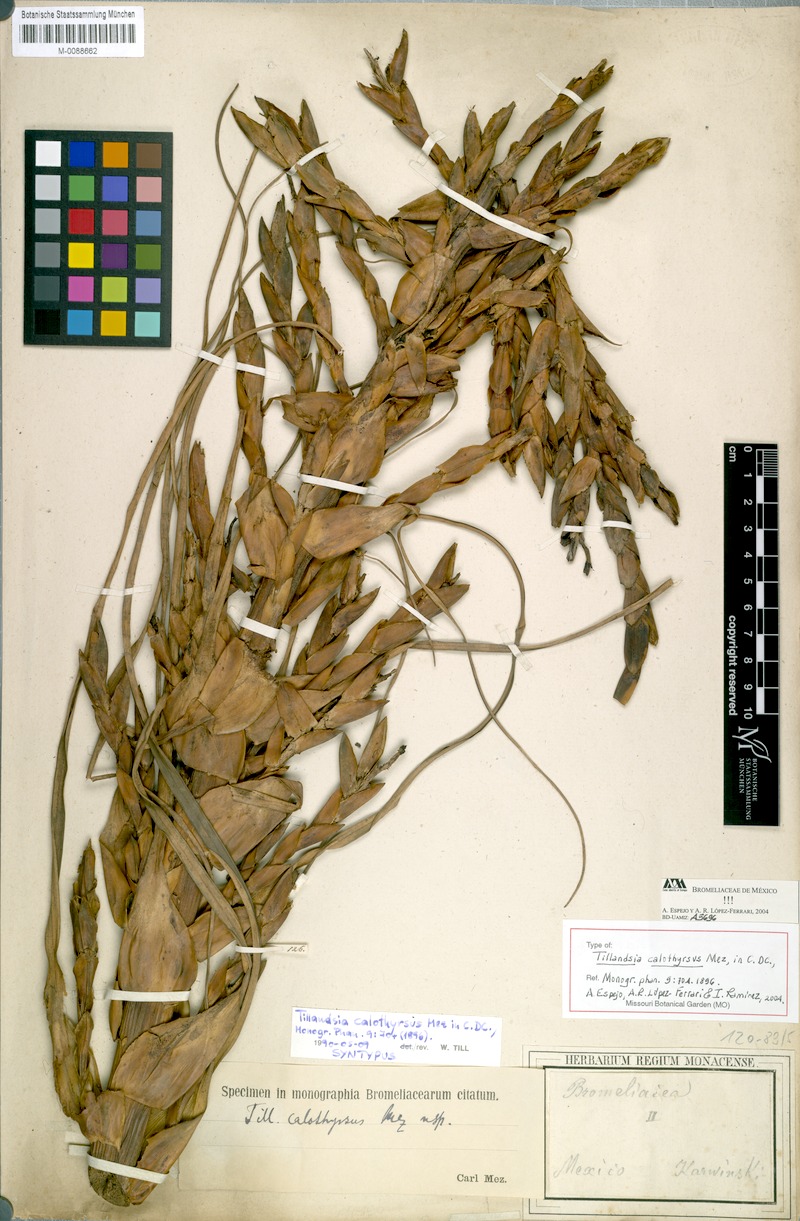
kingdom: Plantae
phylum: Tracheophyta
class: Liliopsida
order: Poales
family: Bromeliaceae
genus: Tillandsia
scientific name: Tillandsia calothyrsus
